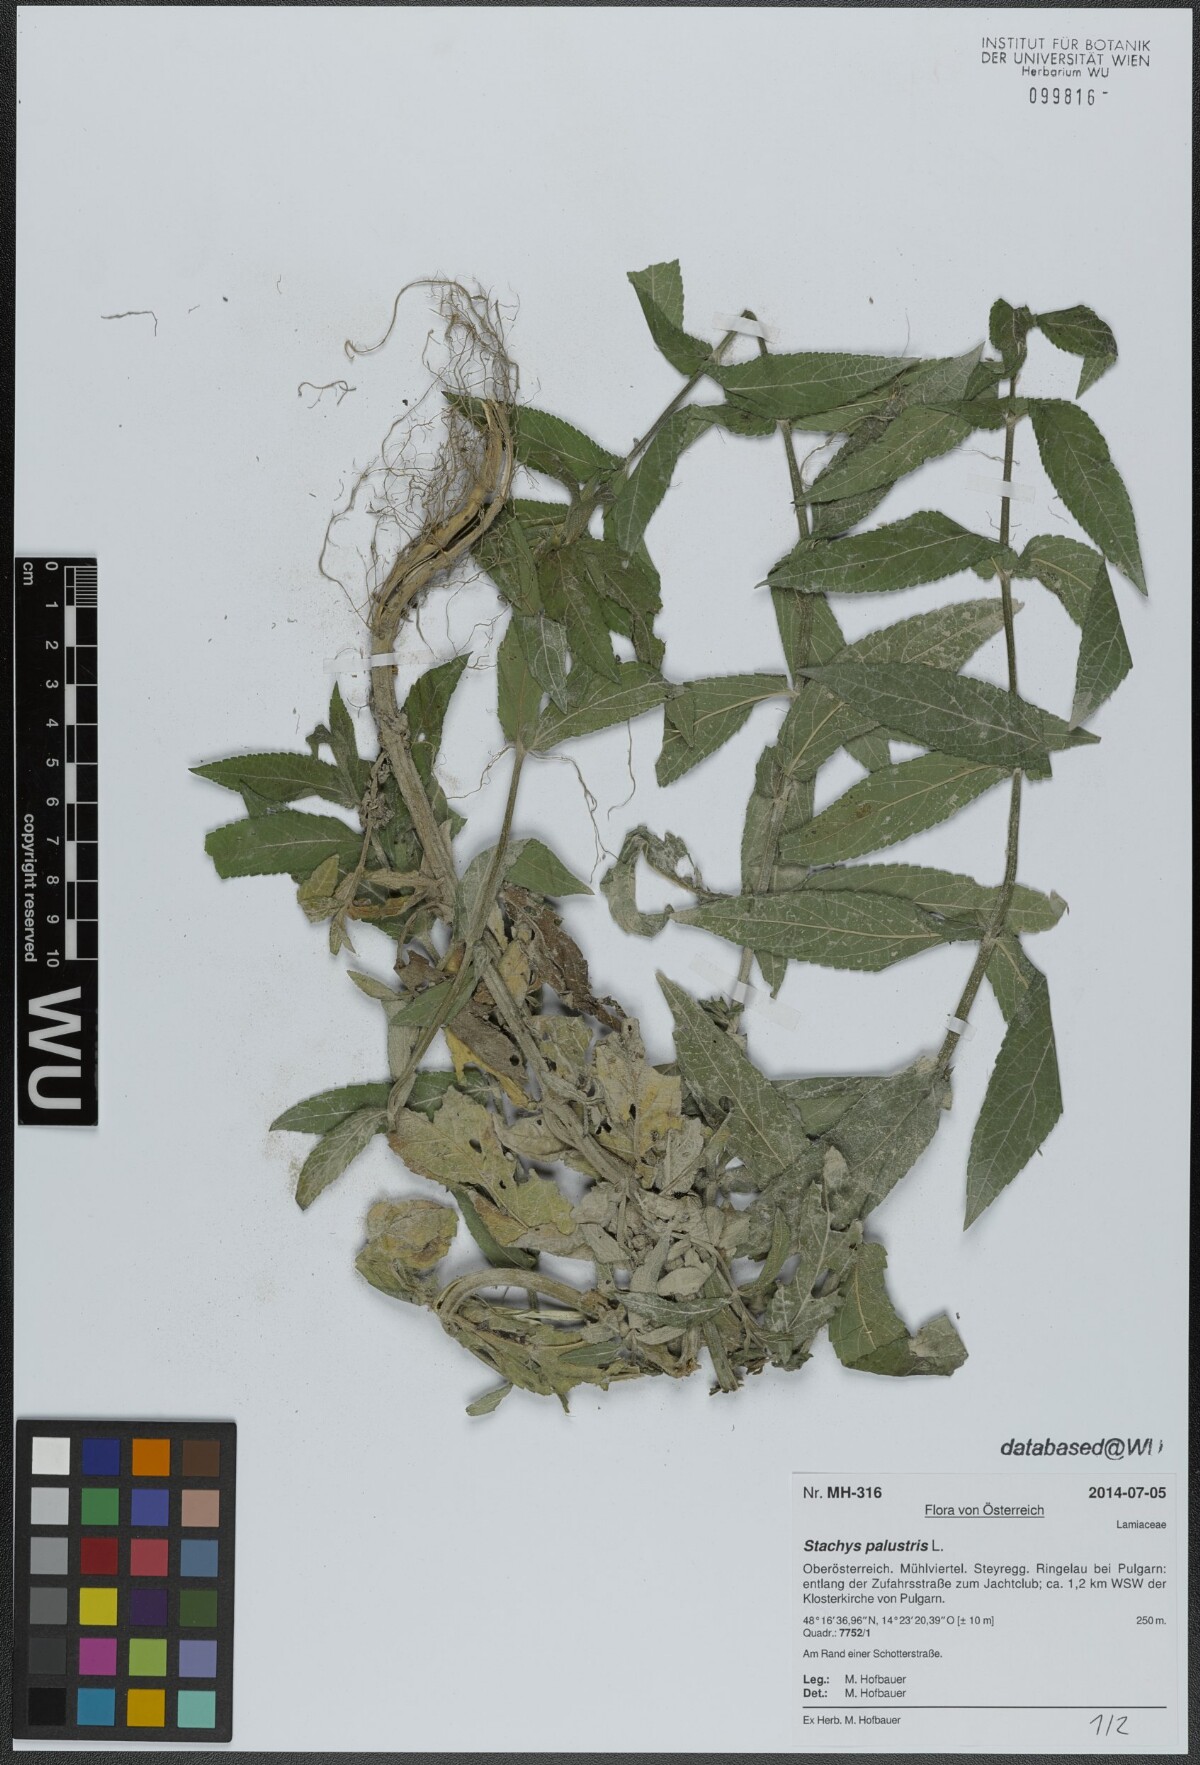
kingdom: Plantae
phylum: Tracheophyta
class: Magnoliopsida
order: Lamiales
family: Lamiaceae
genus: Stachys
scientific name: Stachys palustris
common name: Marsh woundwort
